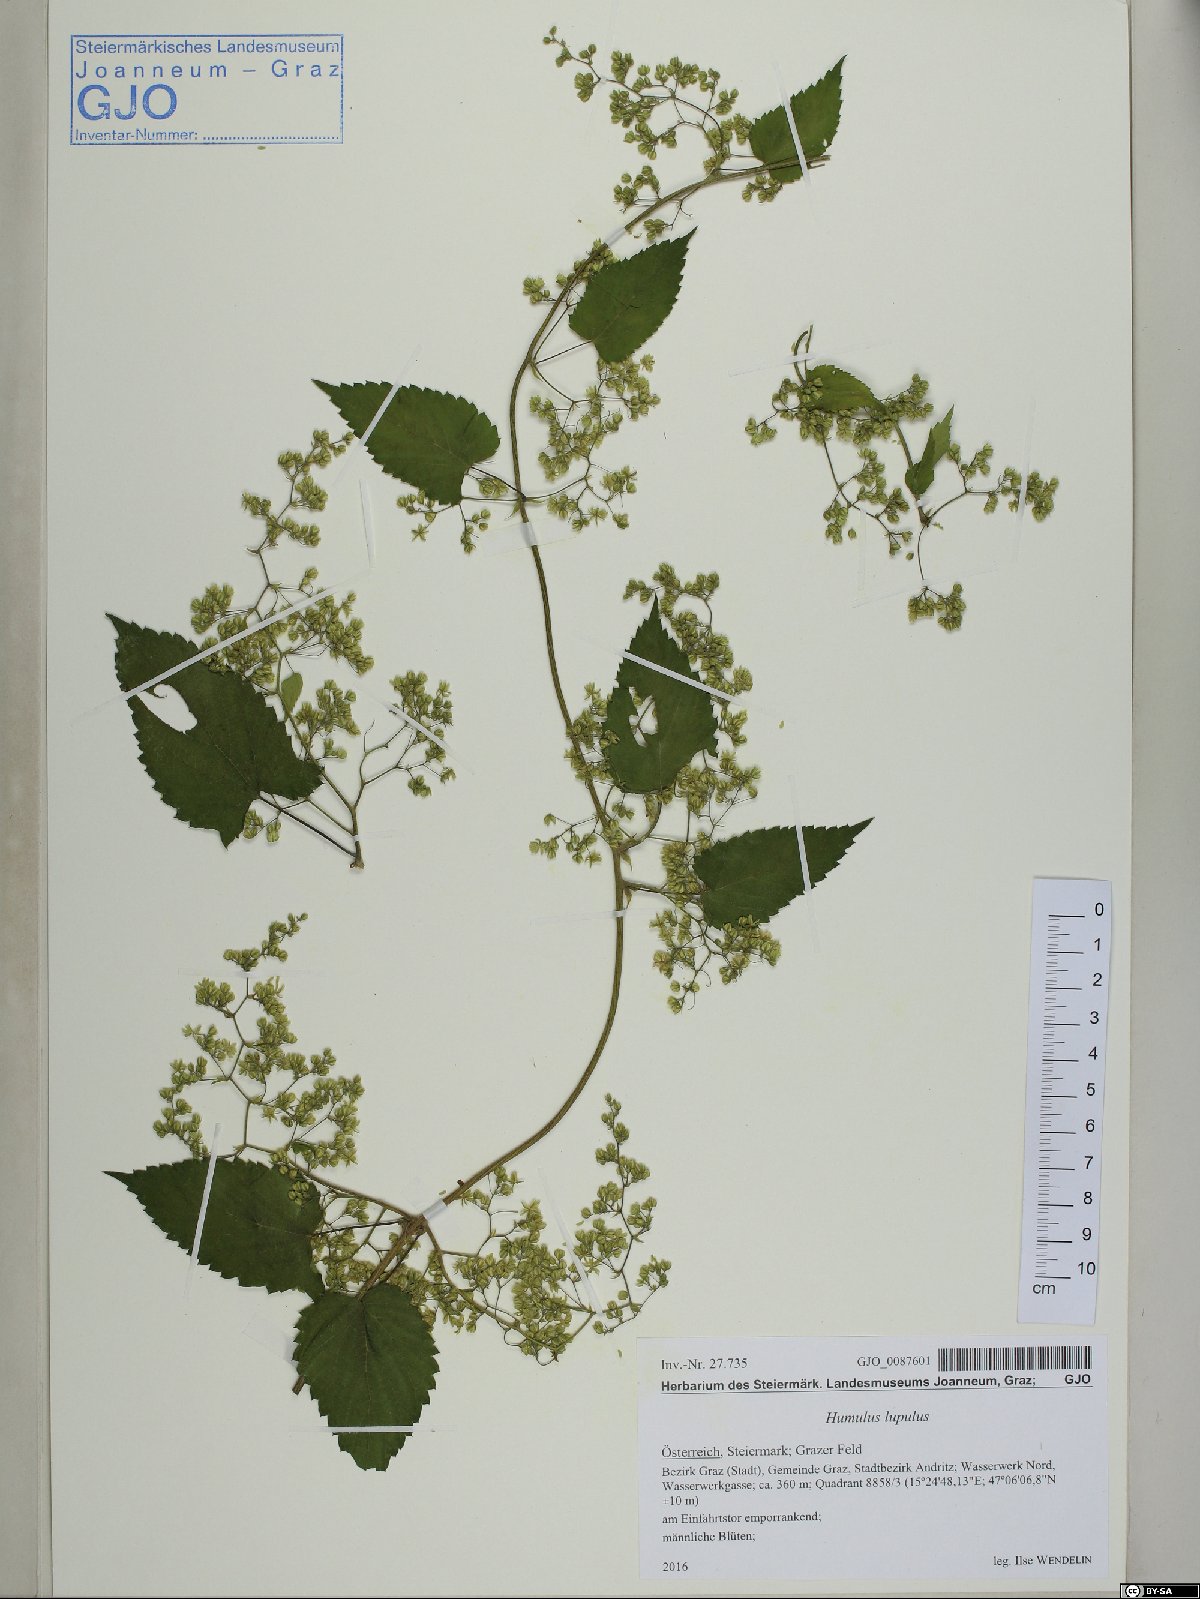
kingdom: Plantae
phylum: Tracheophyta
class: Magnoliopsida
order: Rosales
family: Cannabaceae
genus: Humulus
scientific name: Humulus lupulus
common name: Hop
